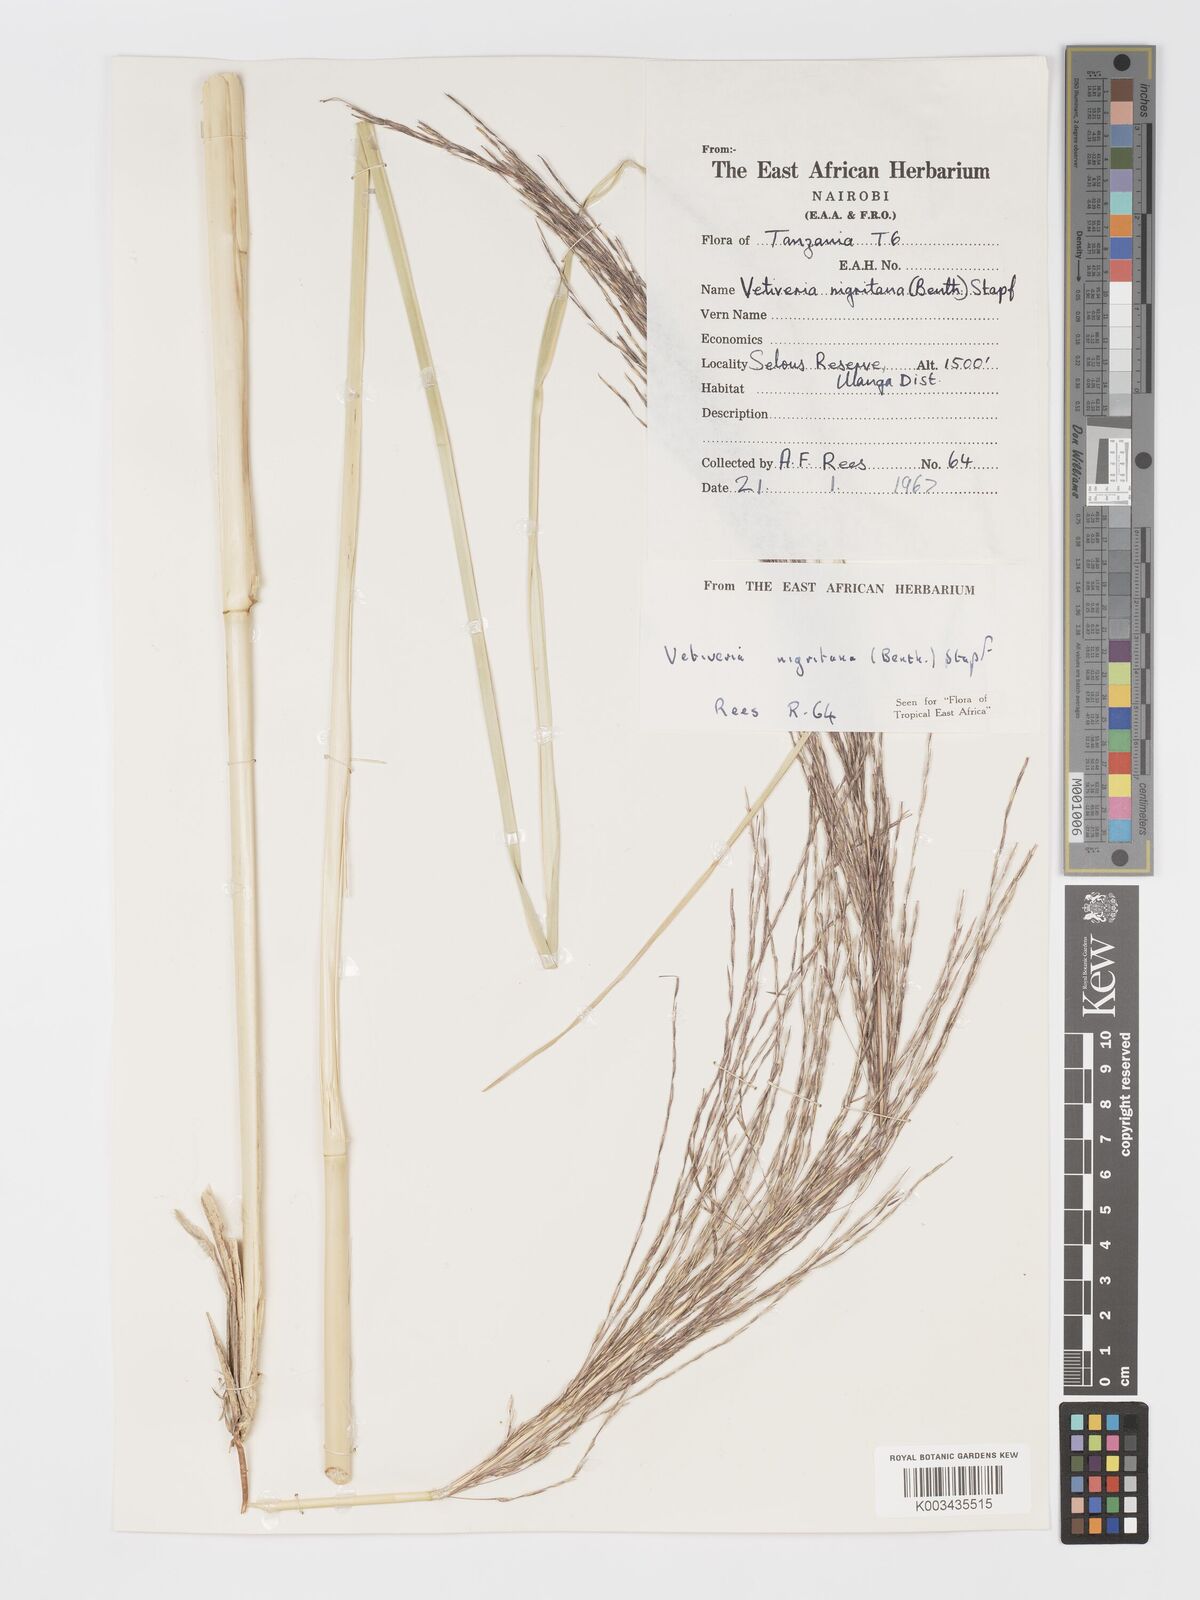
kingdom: Plantae
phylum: Tracheophyta
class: Liliopsida
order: Poales
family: Poaceae
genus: Chrysopogon
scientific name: Chrysopogon nigritanus
